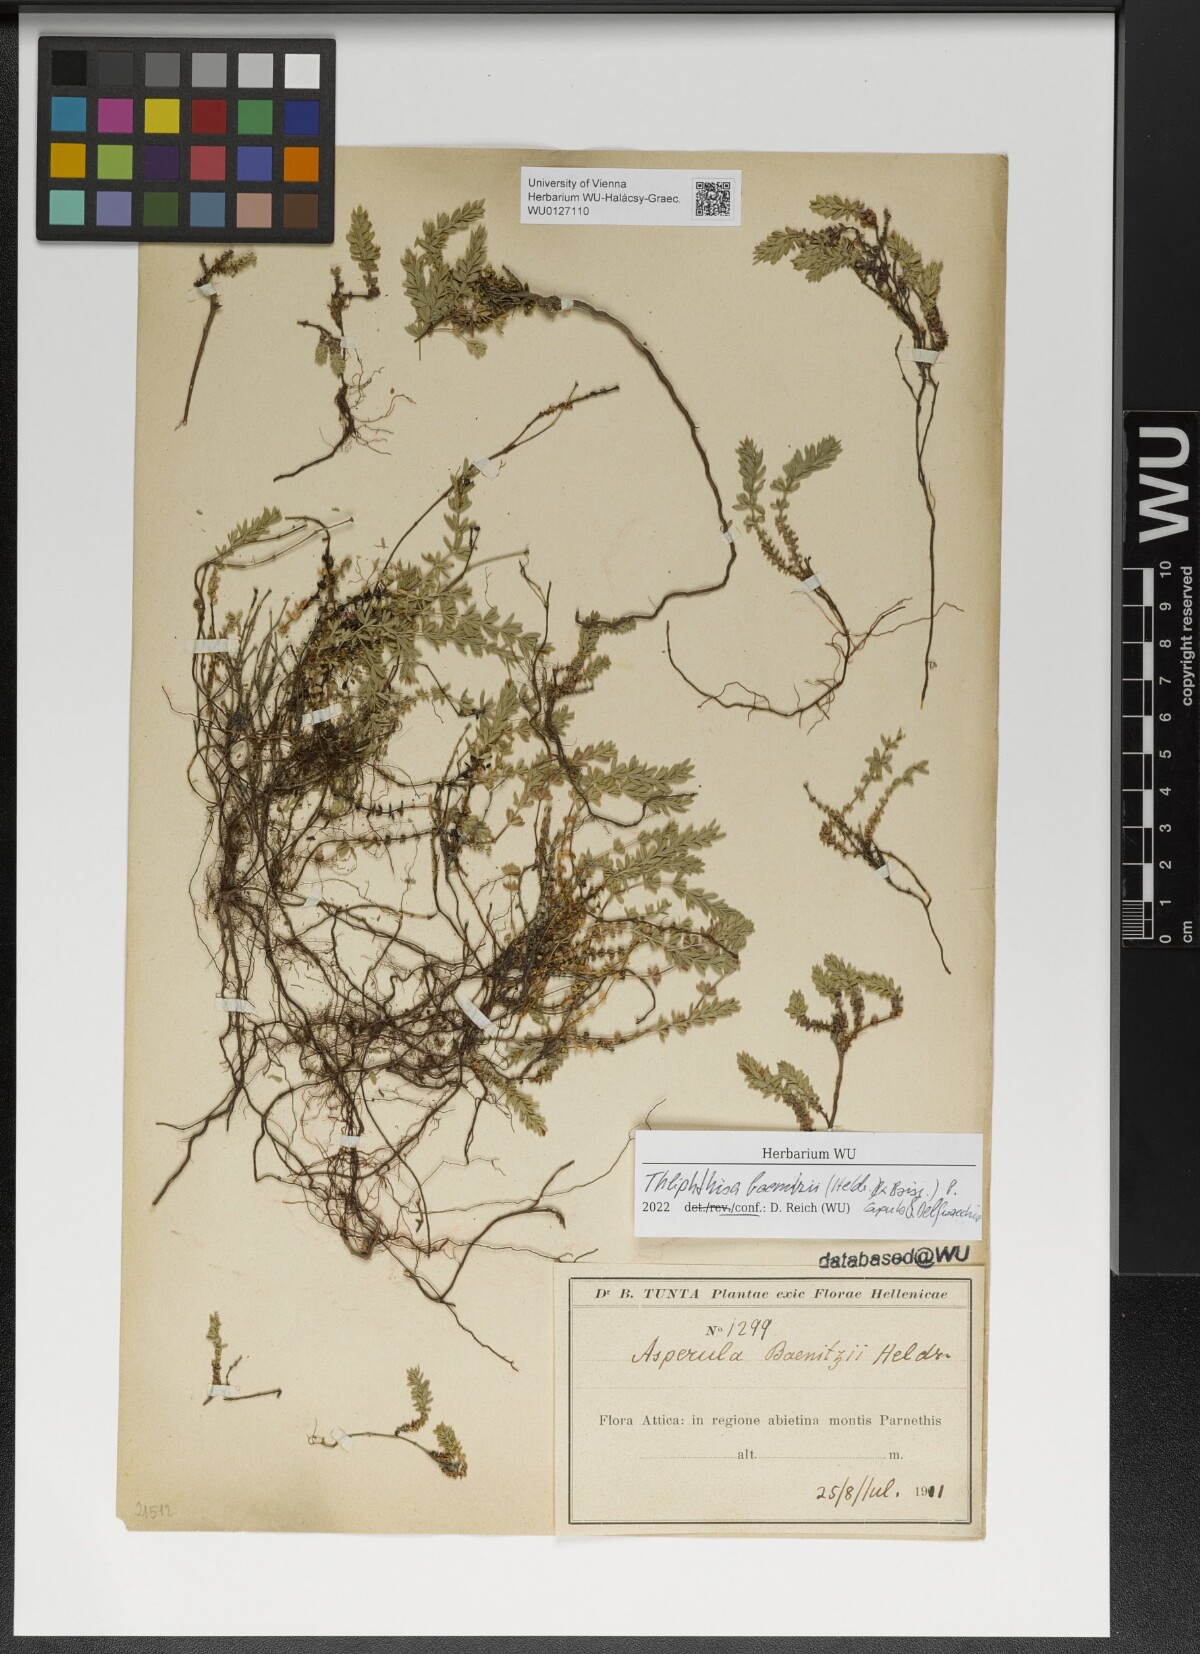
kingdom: Plantae
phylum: Tracheophyta
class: Magnoliopsida
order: Gentianales
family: Rubiaceae
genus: Thliphthisa
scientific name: Thliphthisa baenitzii
